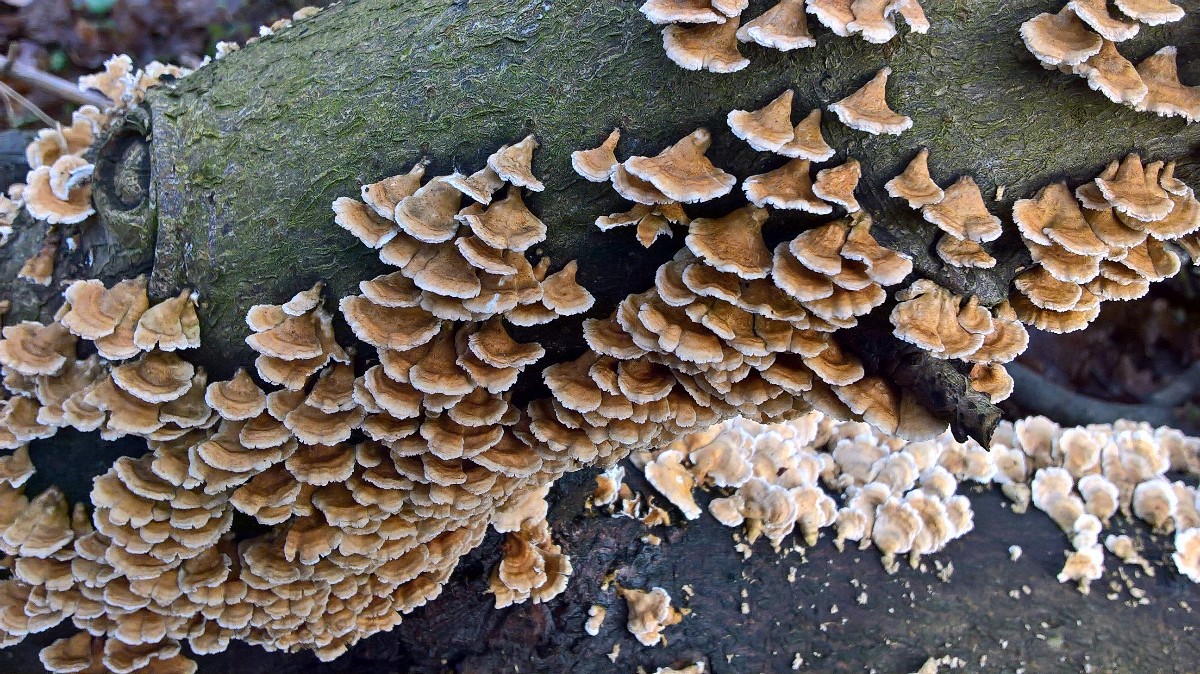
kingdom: Fungi
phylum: Basidiomycota
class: Agaricomycetes
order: Amylocorticiales
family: Amylocorticiaceae
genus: Plicaturopsis
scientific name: Plicaturopsis crispa
